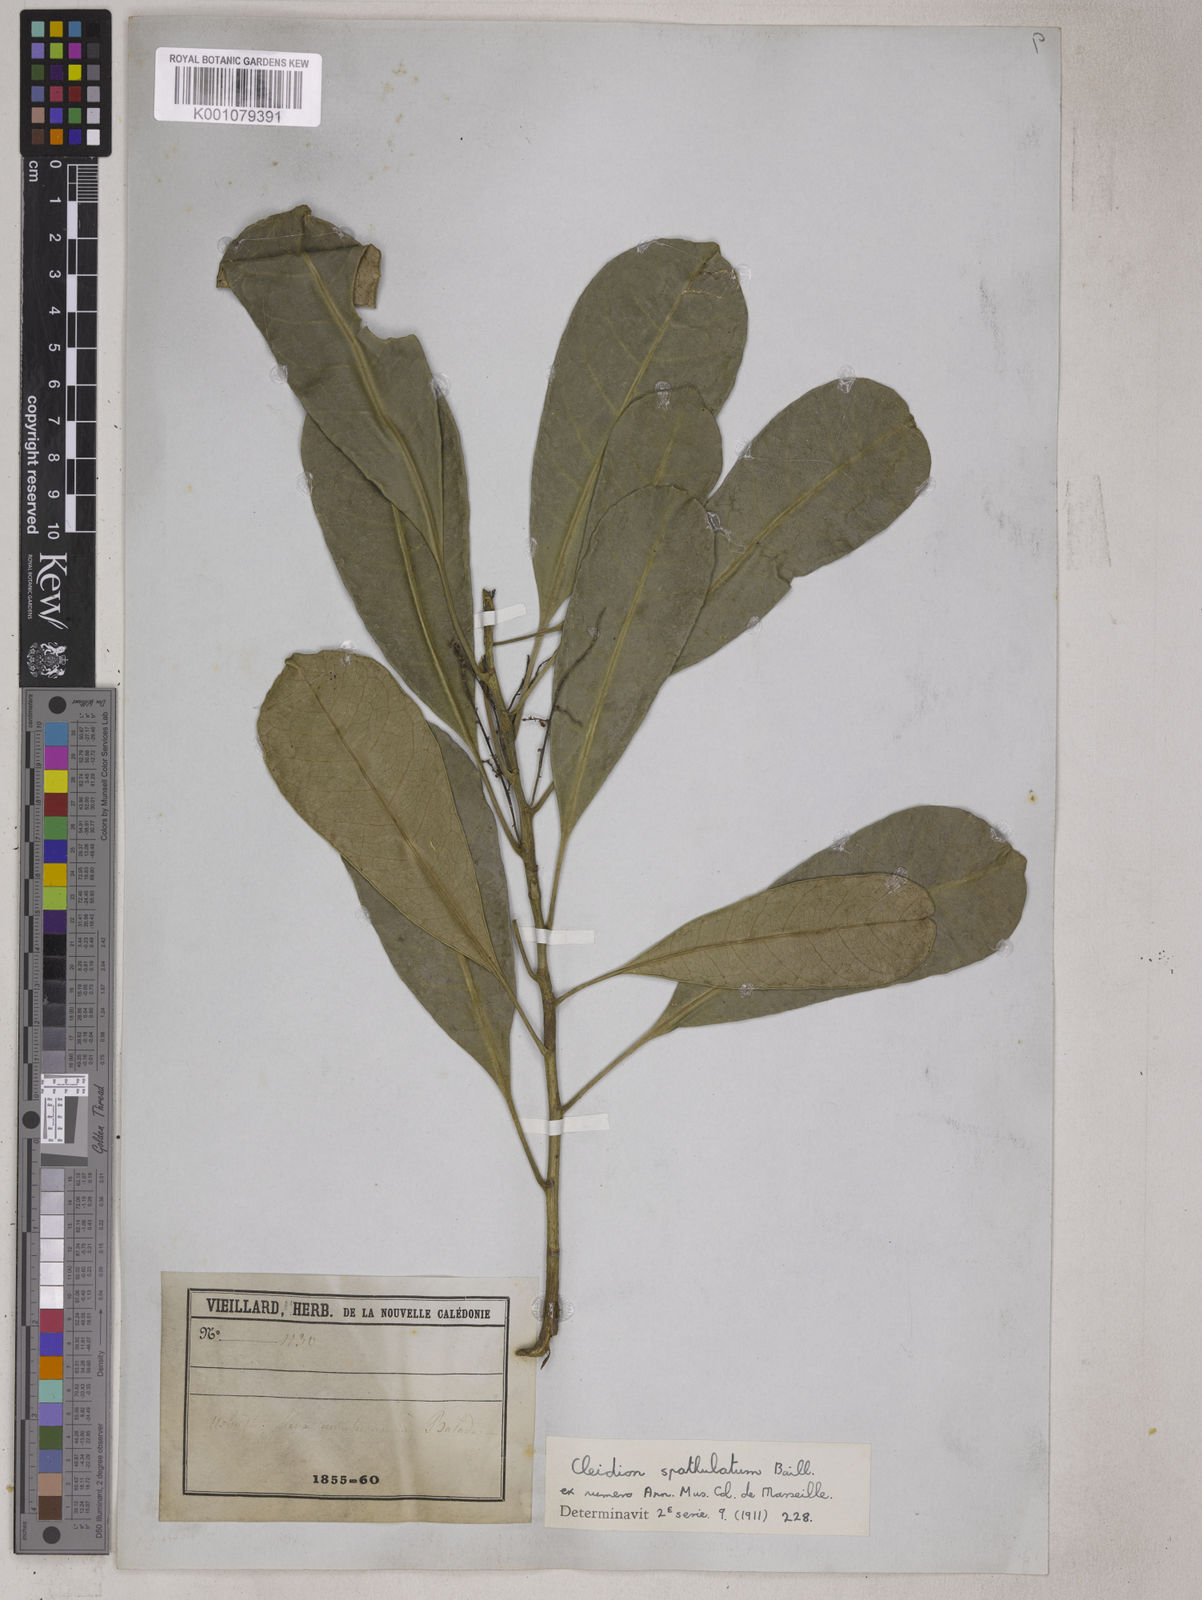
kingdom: Plantae
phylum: Tracheophyta
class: Magnoliopsida
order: Malpighiales
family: Euphorbiaceae
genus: Cleidion
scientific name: Cleidion spathulatum
